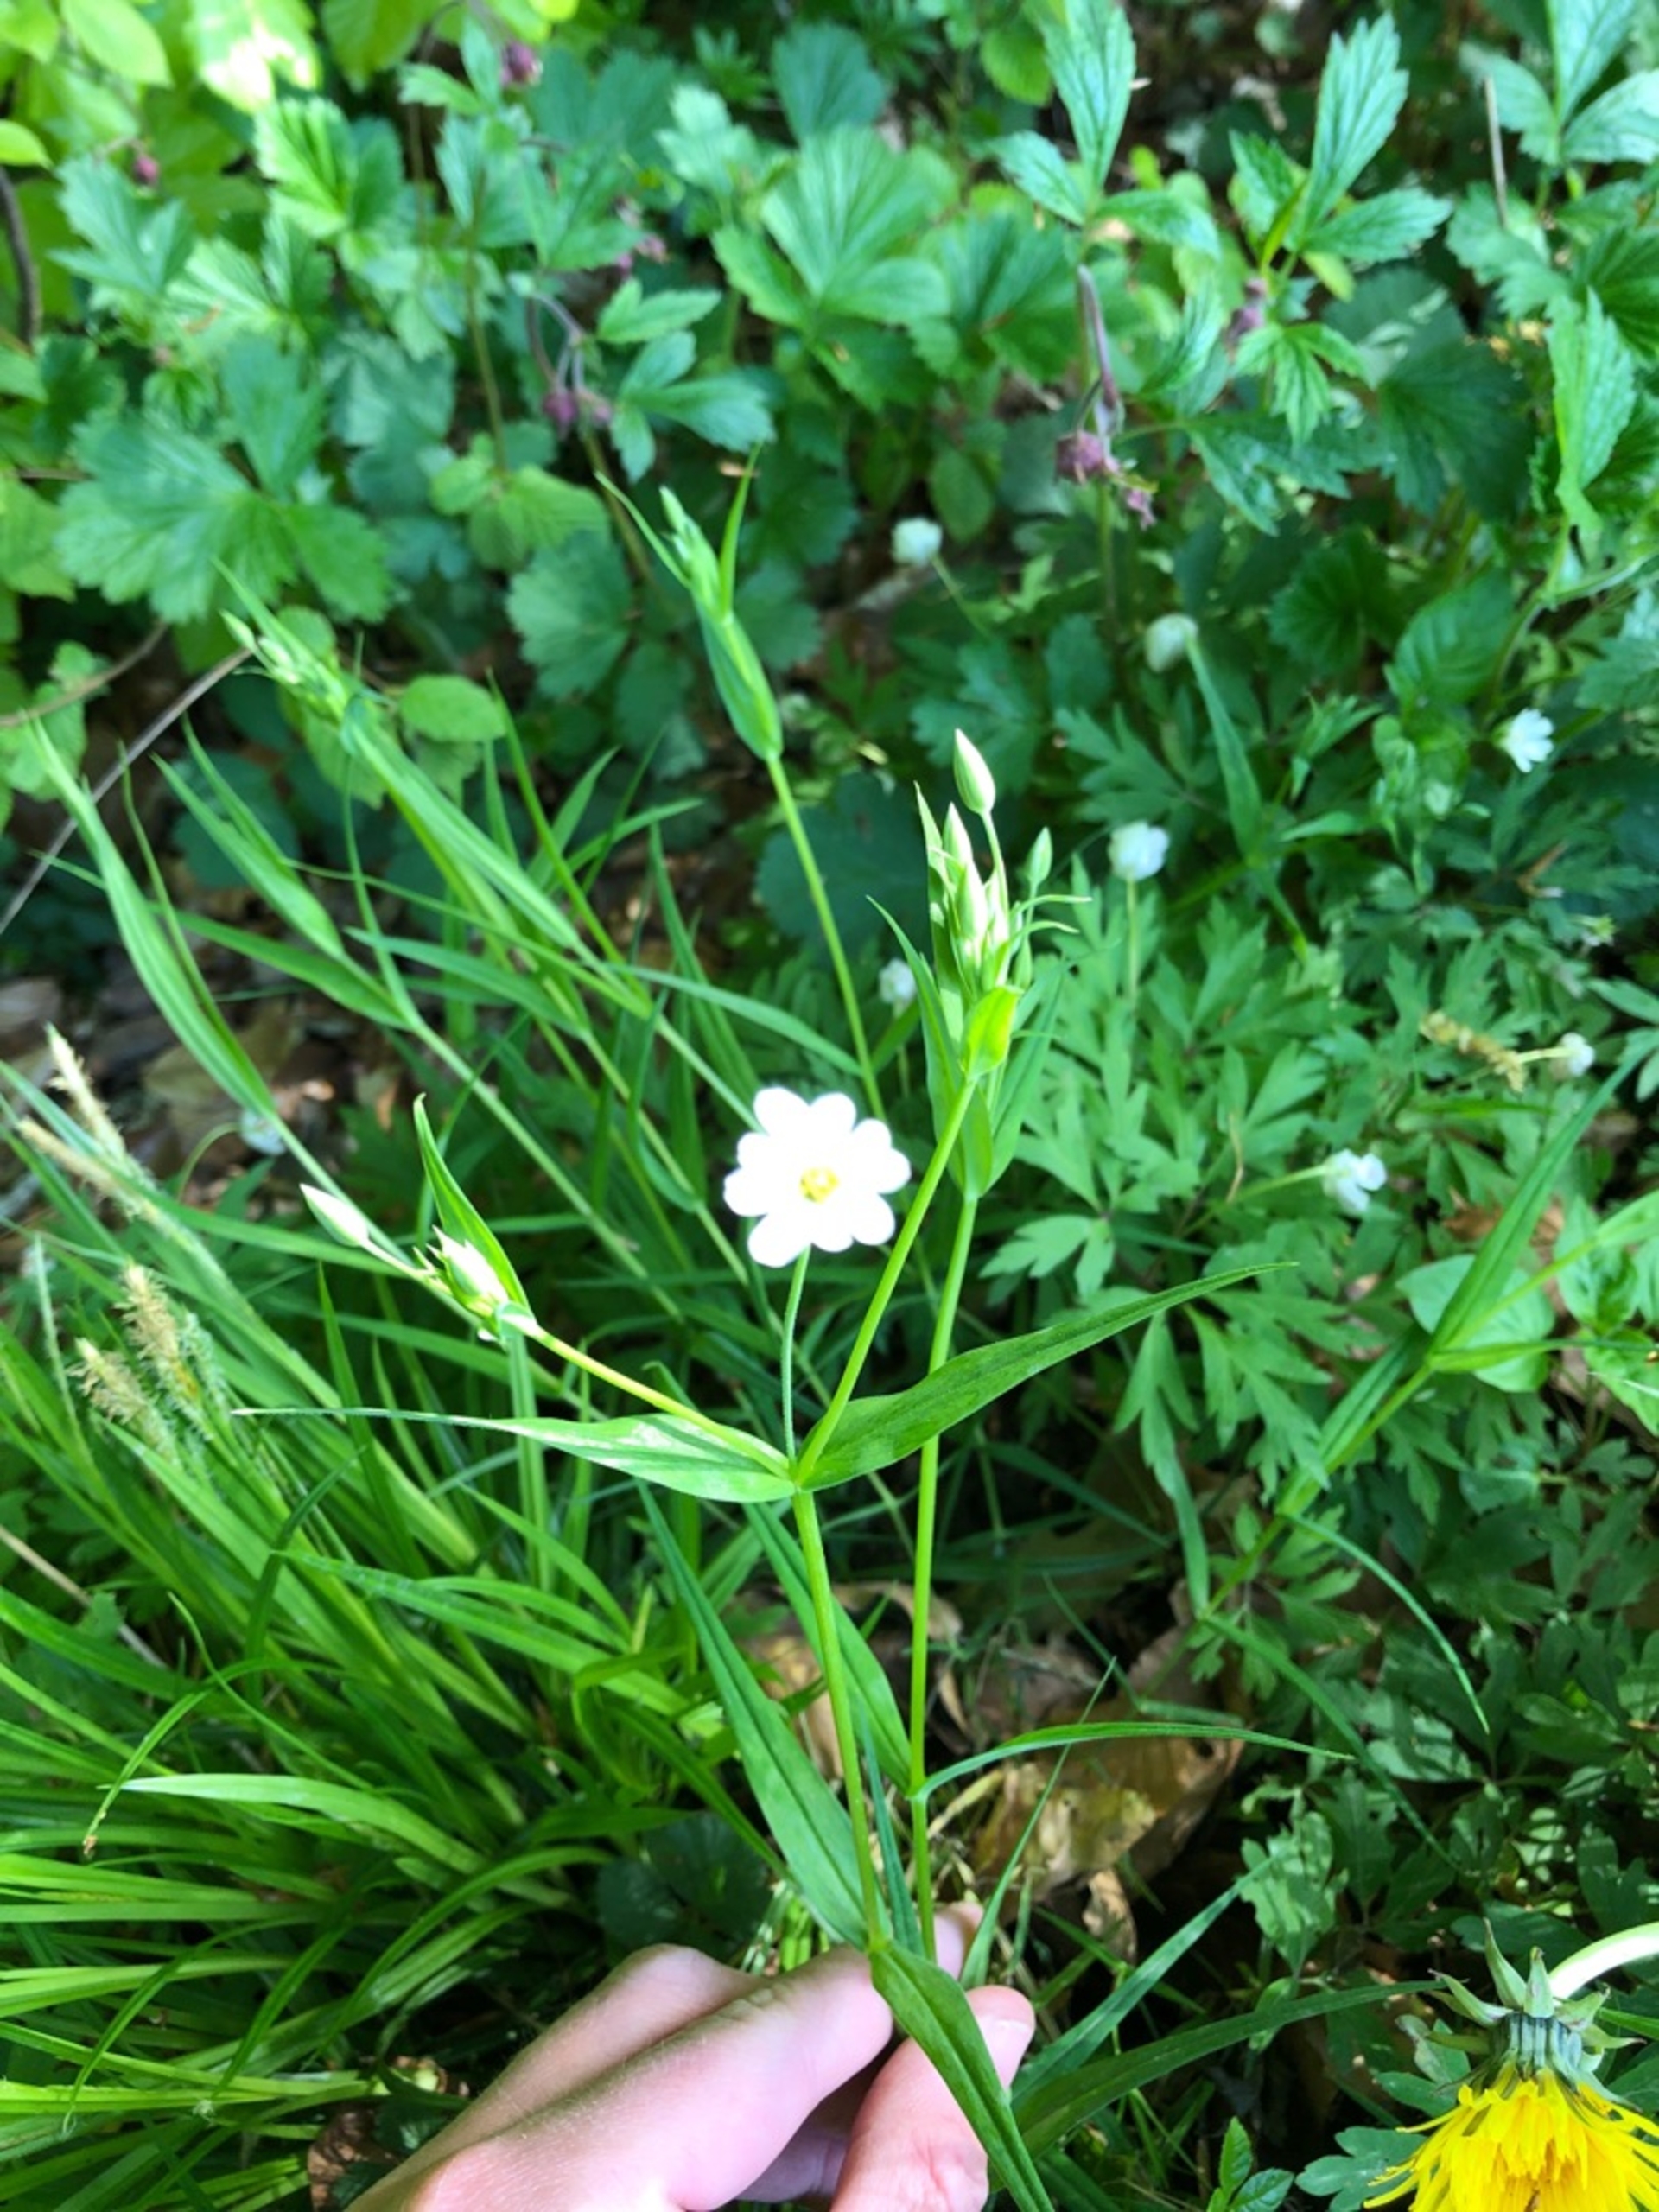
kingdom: Plantae
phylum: Tracheophyta
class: Magnoliopsida
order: Caryophyllales
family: Caryophyllaceae
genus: Rabelera
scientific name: Rabelera holostea
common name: Stor fladstjerne
